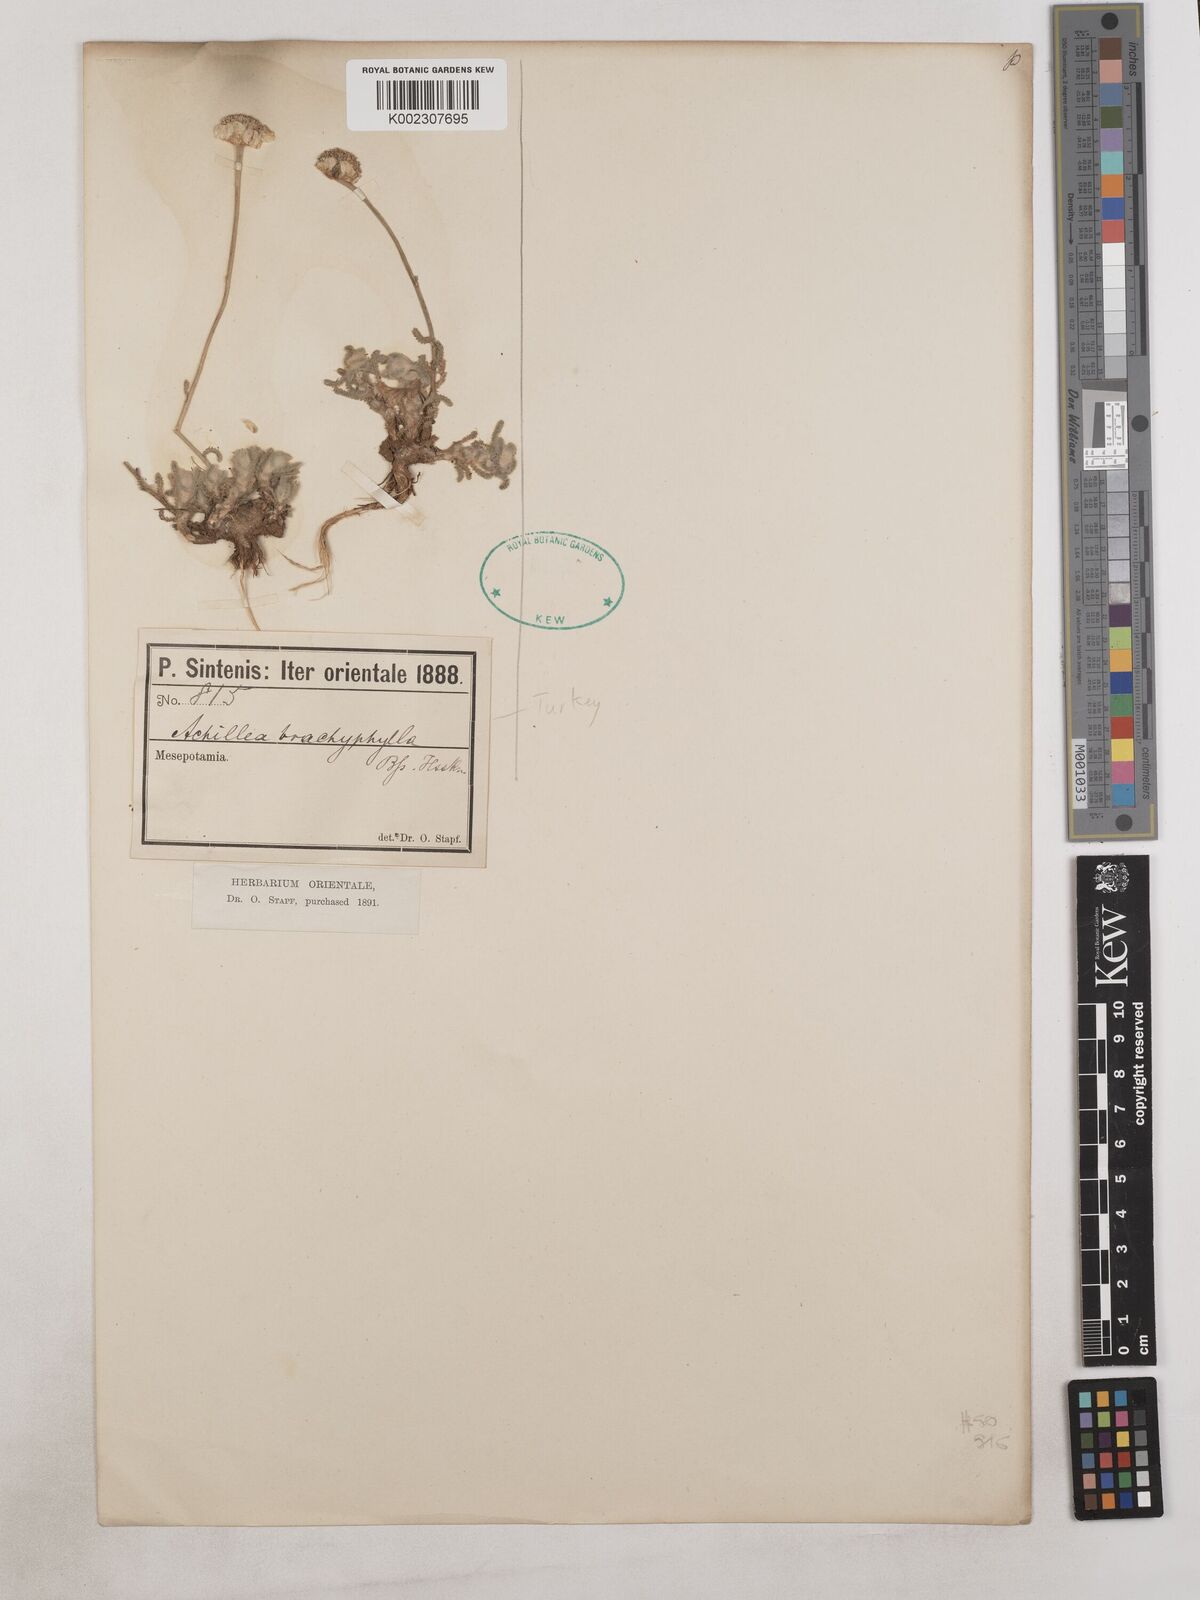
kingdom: Plantae
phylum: Tracheophyta
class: Magnoliopsida
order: Asterales
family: Asteraceae
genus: Achillea
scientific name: Achillea brachyphylla
